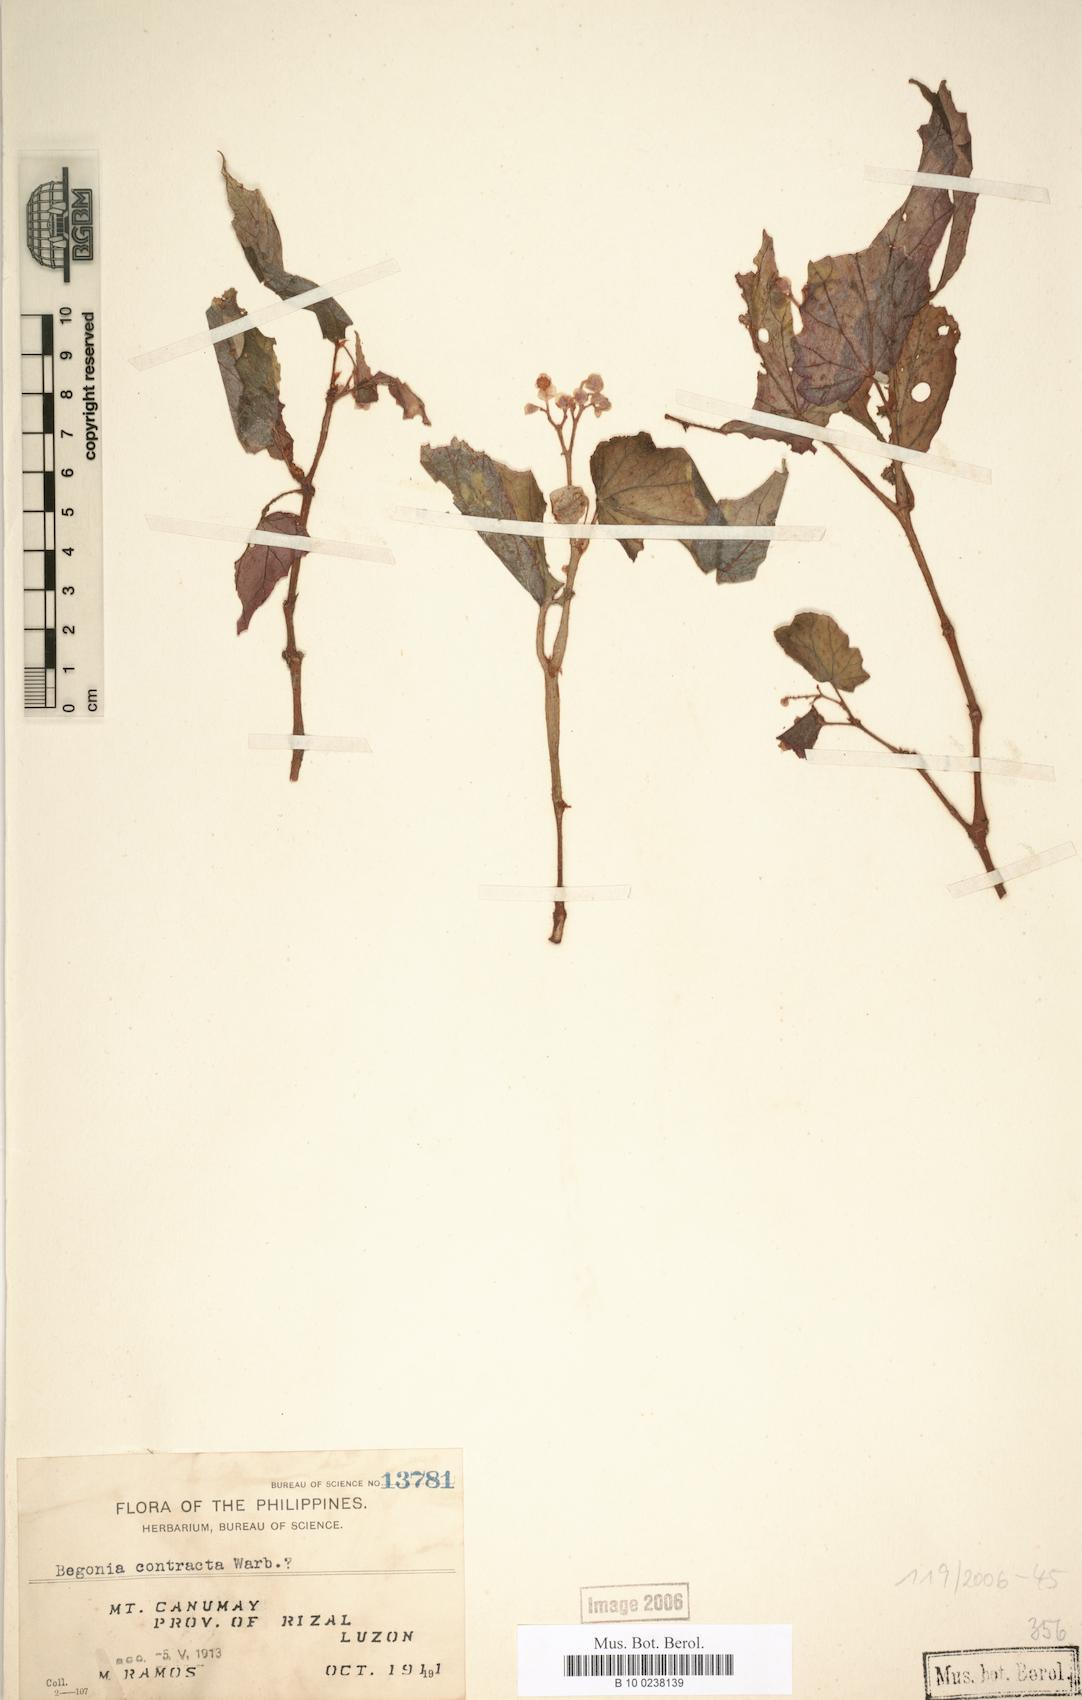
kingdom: Plantae
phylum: Tracheophyta
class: Magnoliopsida
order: Cucurbitales
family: Begoniaceae
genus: Begonia
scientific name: Begonia contracta
